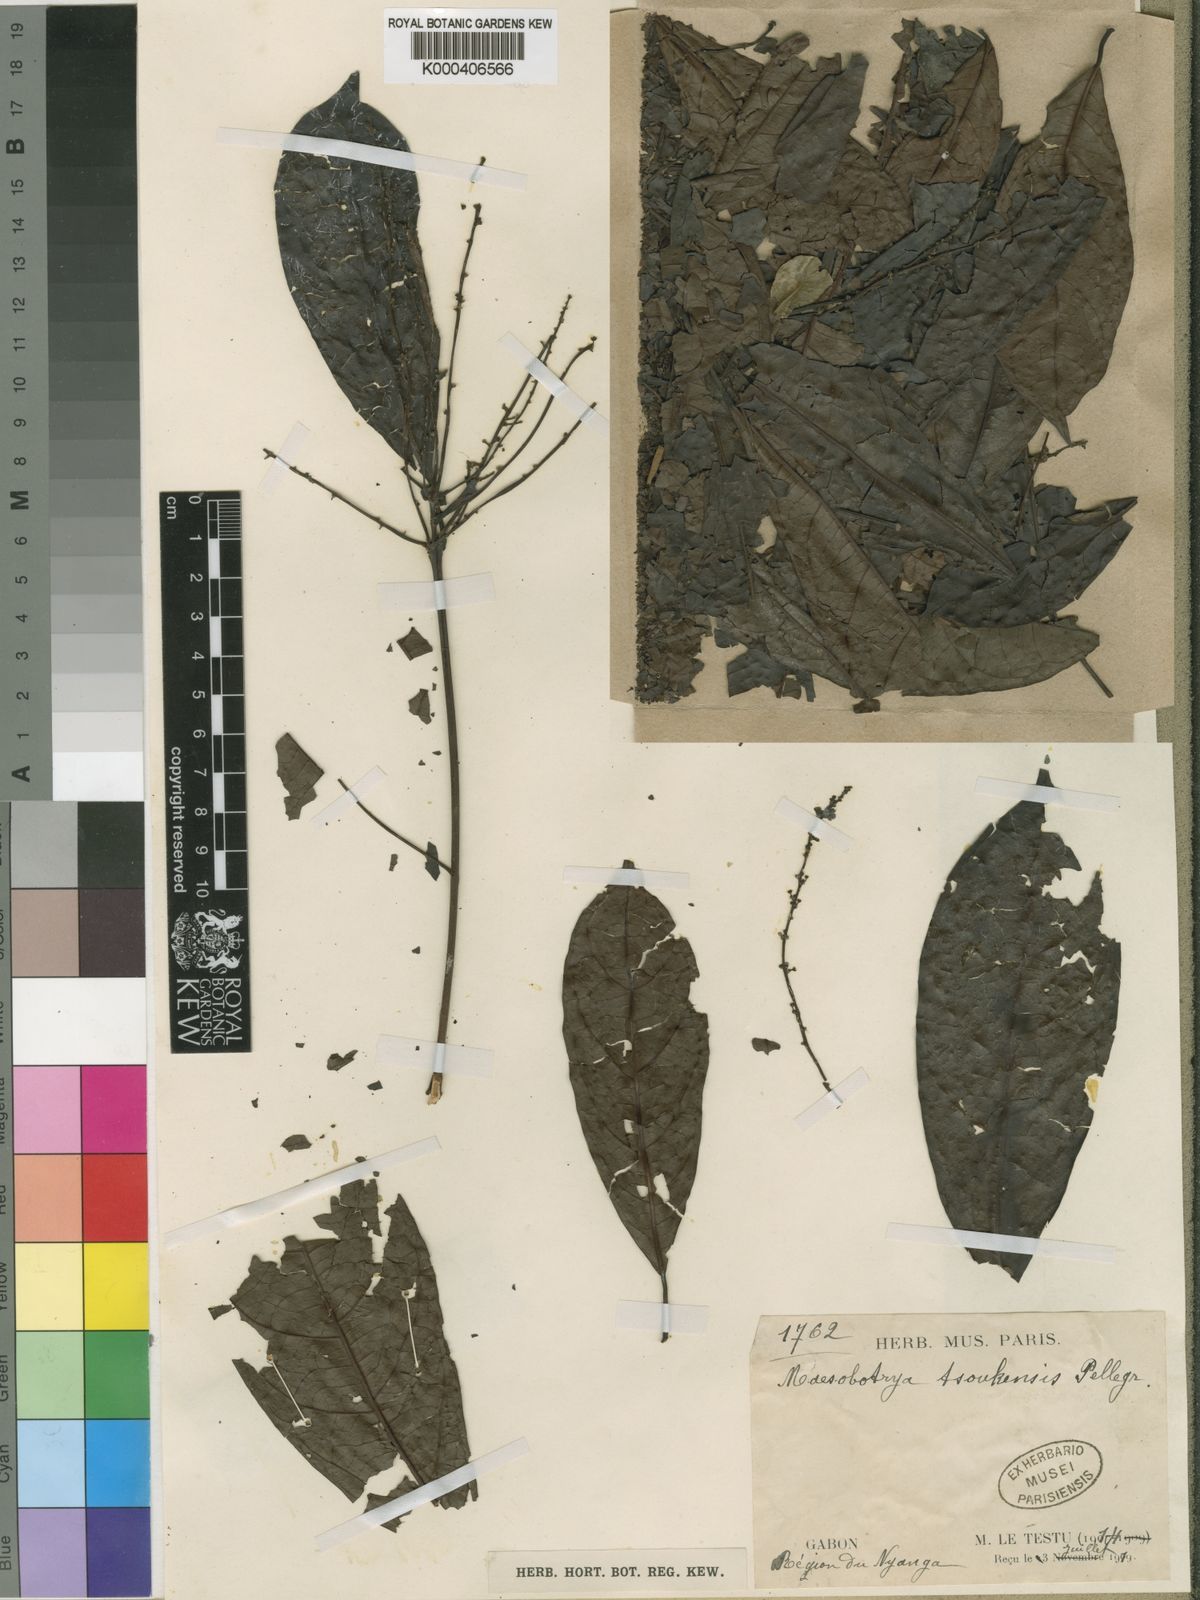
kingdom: Plantae
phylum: Tracheophyta
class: Magnoliopsida
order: Malpighiales
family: Phyllanthaceae
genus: Maesobotrya
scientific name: Maesobotrya bertramiana
